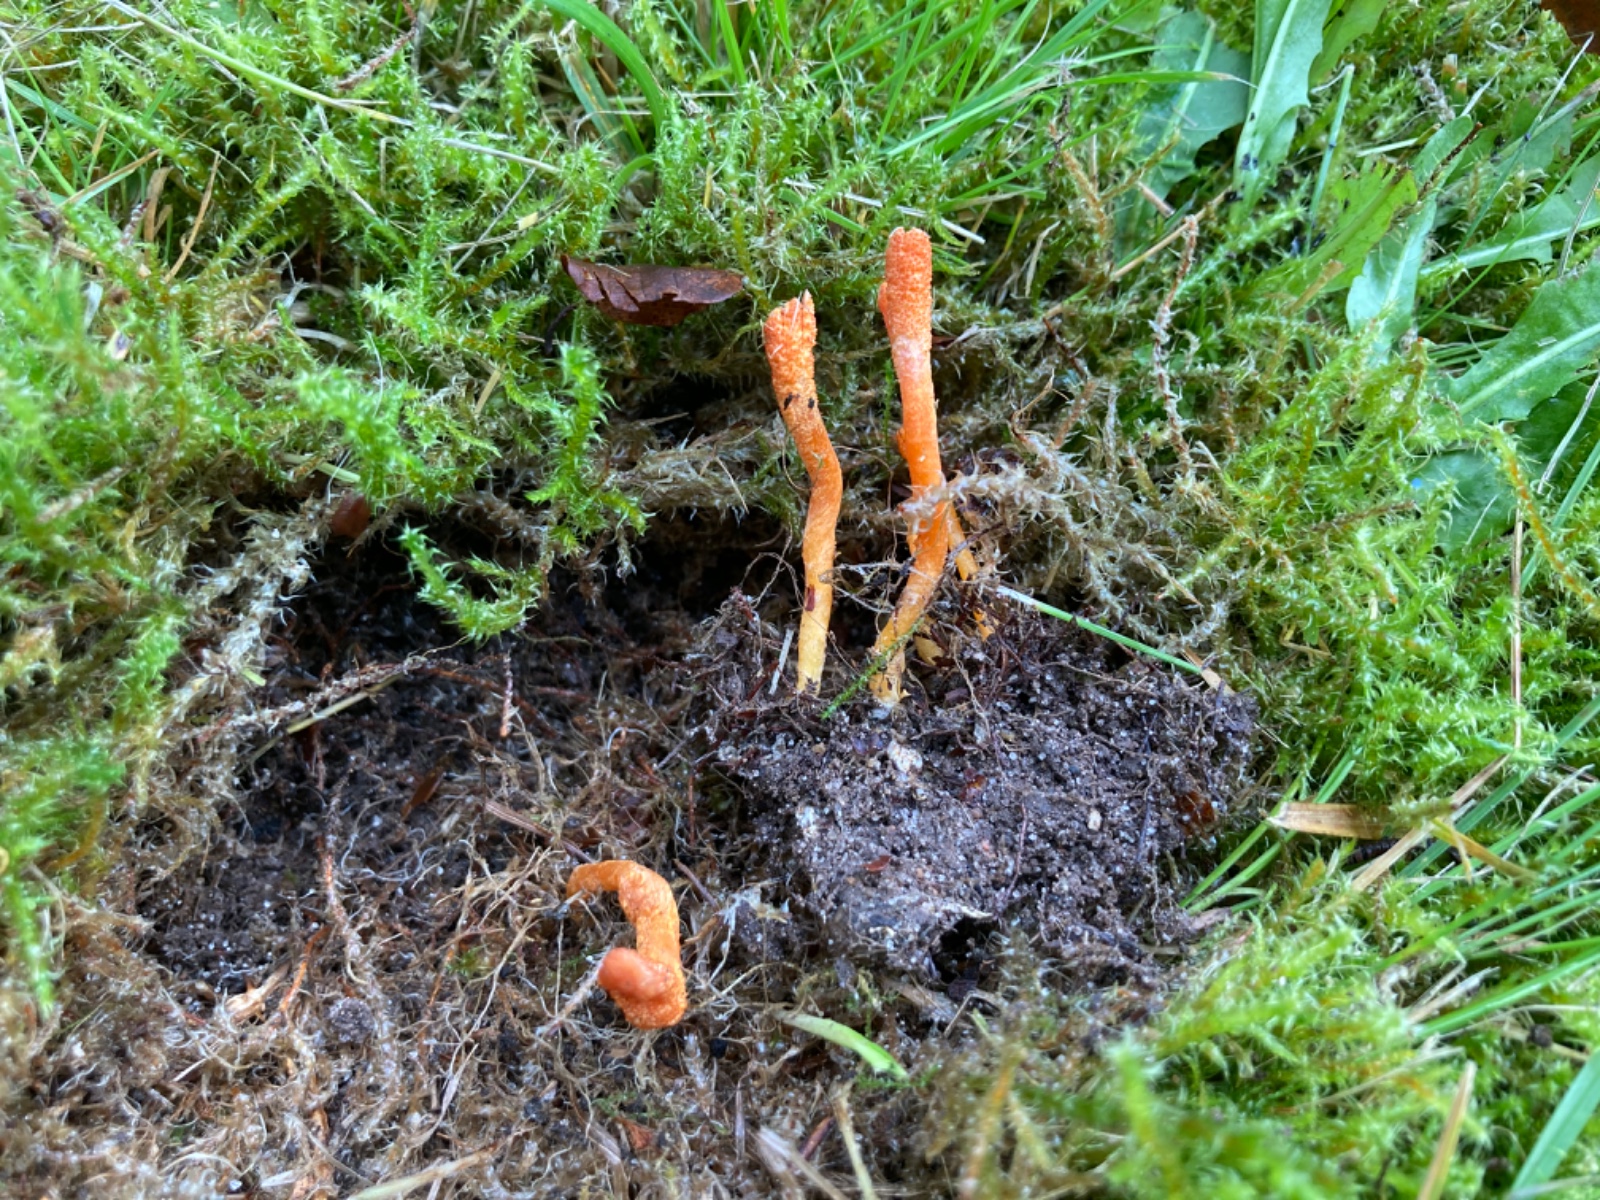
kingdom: Fungi
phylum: Ascomycota
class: Sordariomycetes
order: Hypocreales
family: Cordycipitaceae
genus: Cordyceps
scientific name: Cordyceps militaris
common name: puppe-snyltekølle
